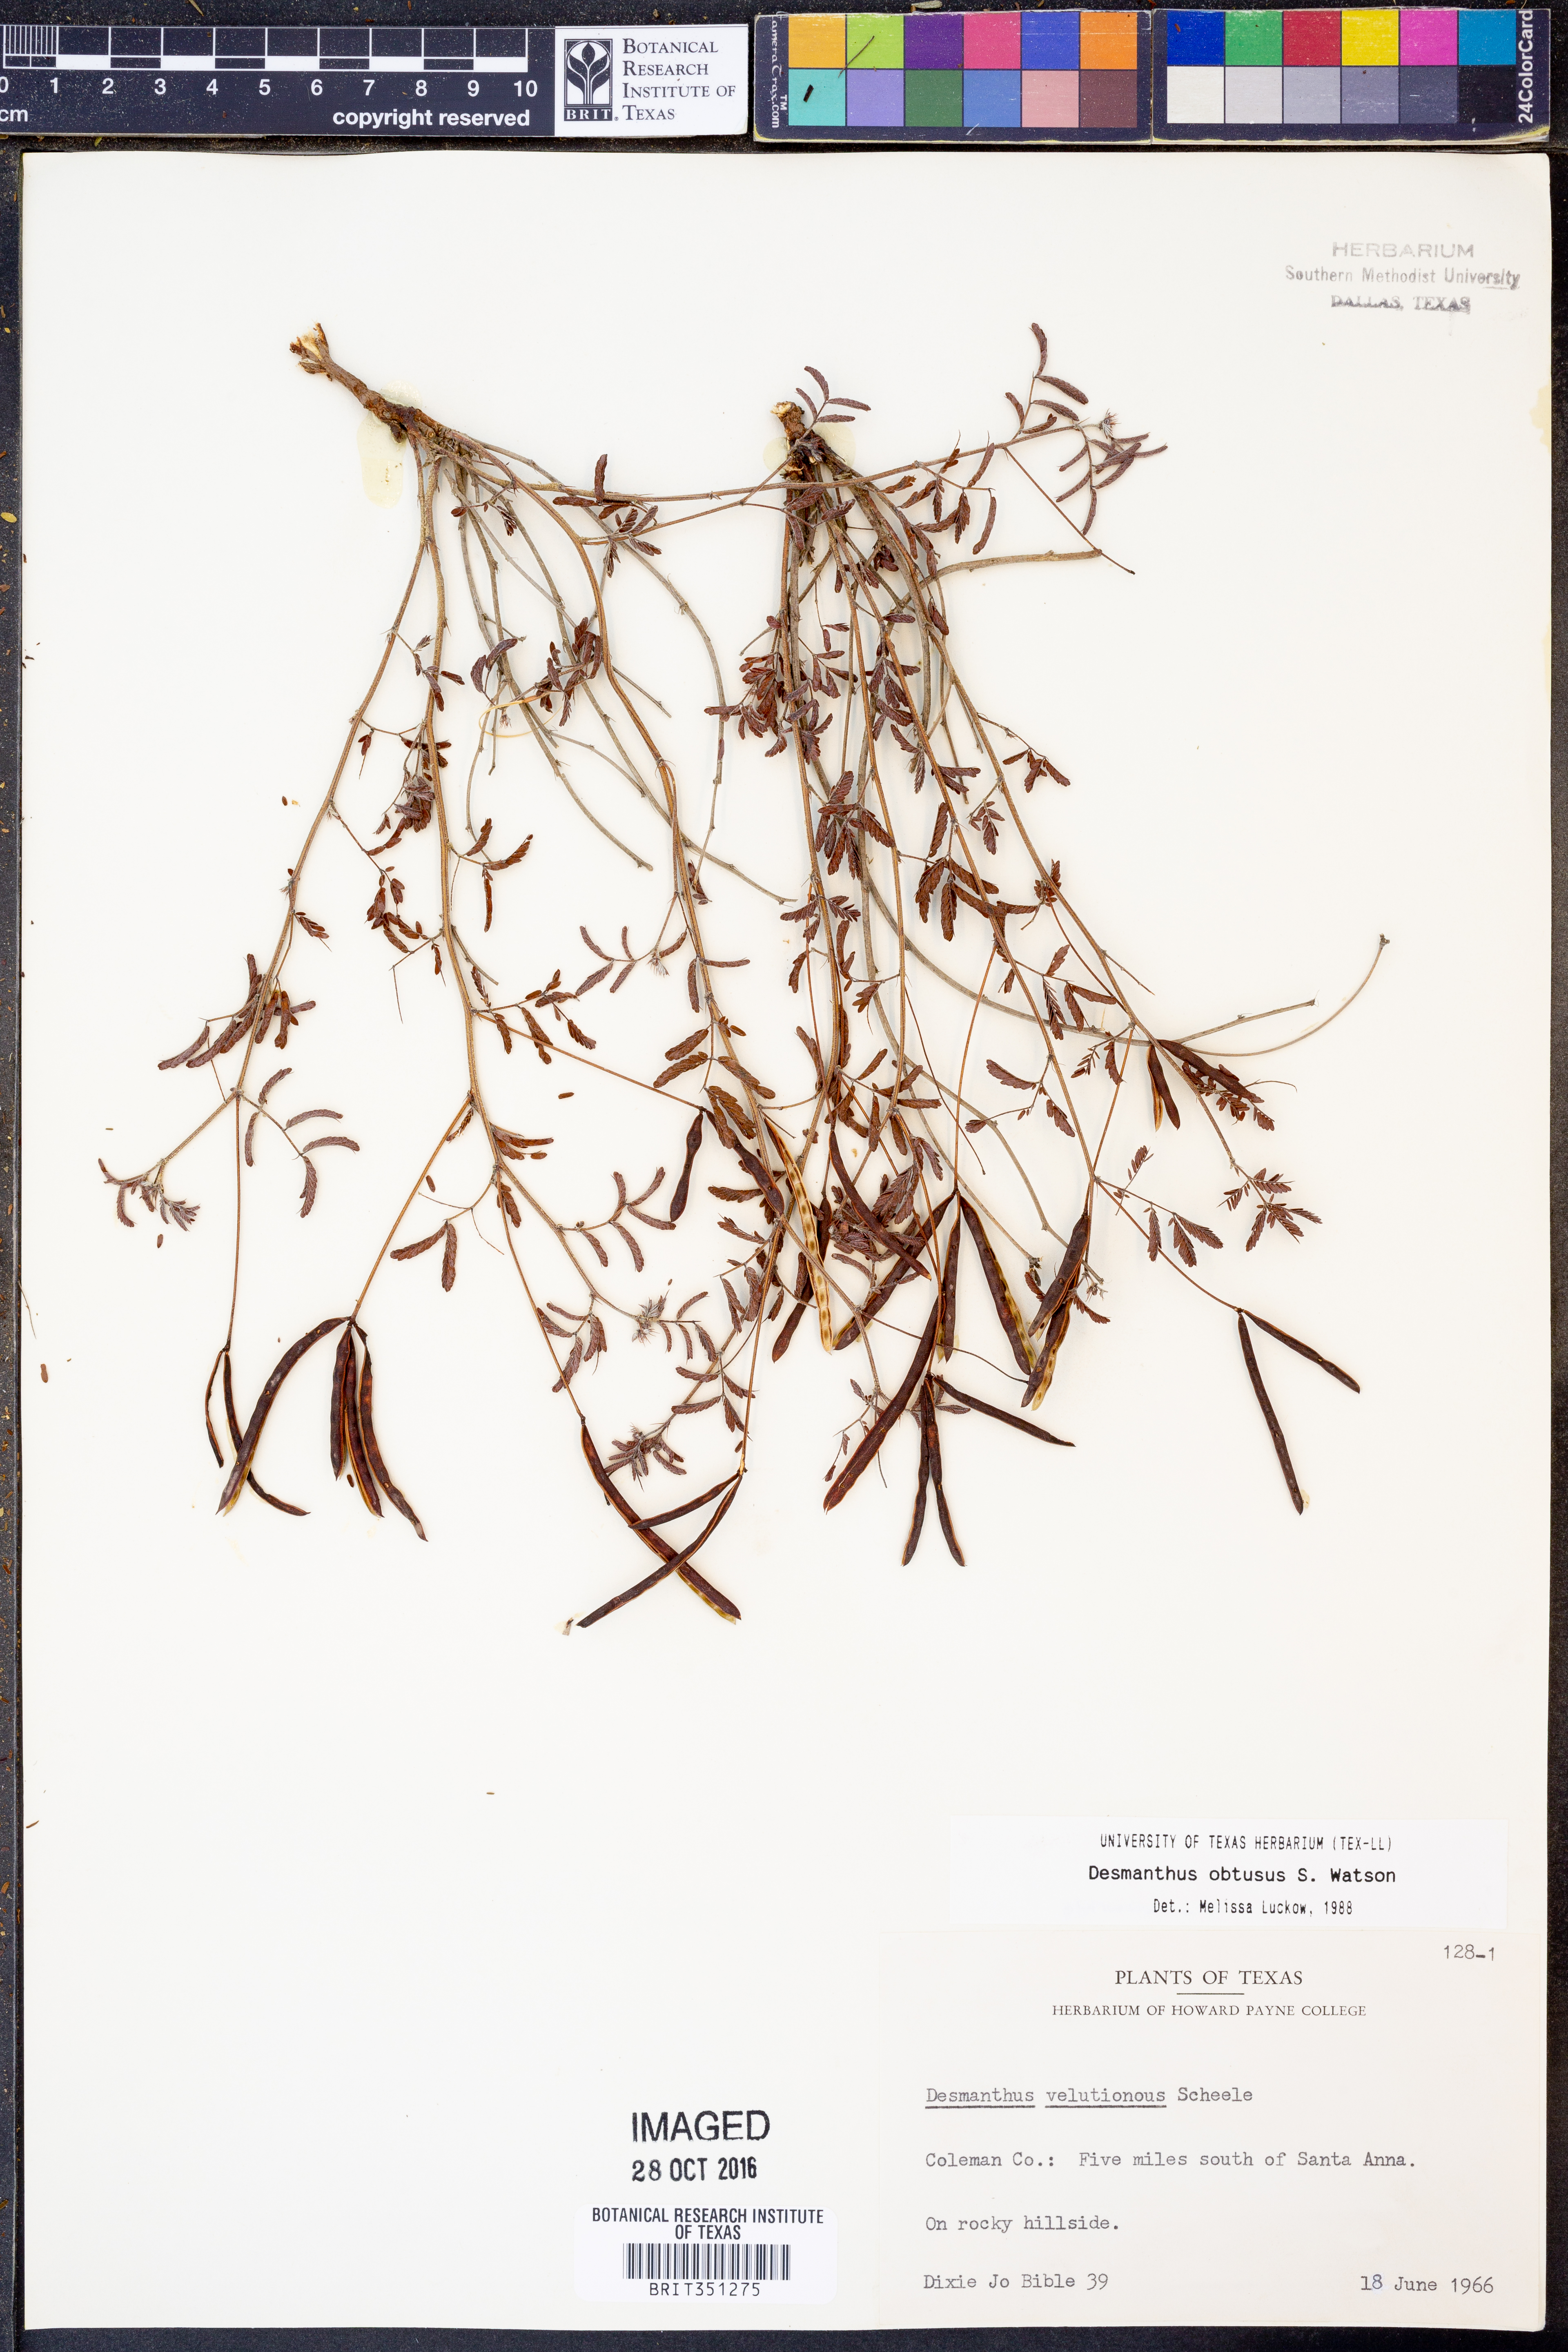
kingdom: Plantae
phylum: Tracheophyta
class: Magnoliopsida
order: Fabales
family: Fabaceae
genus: Desmanthus
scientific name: Desmanthus obtusus
